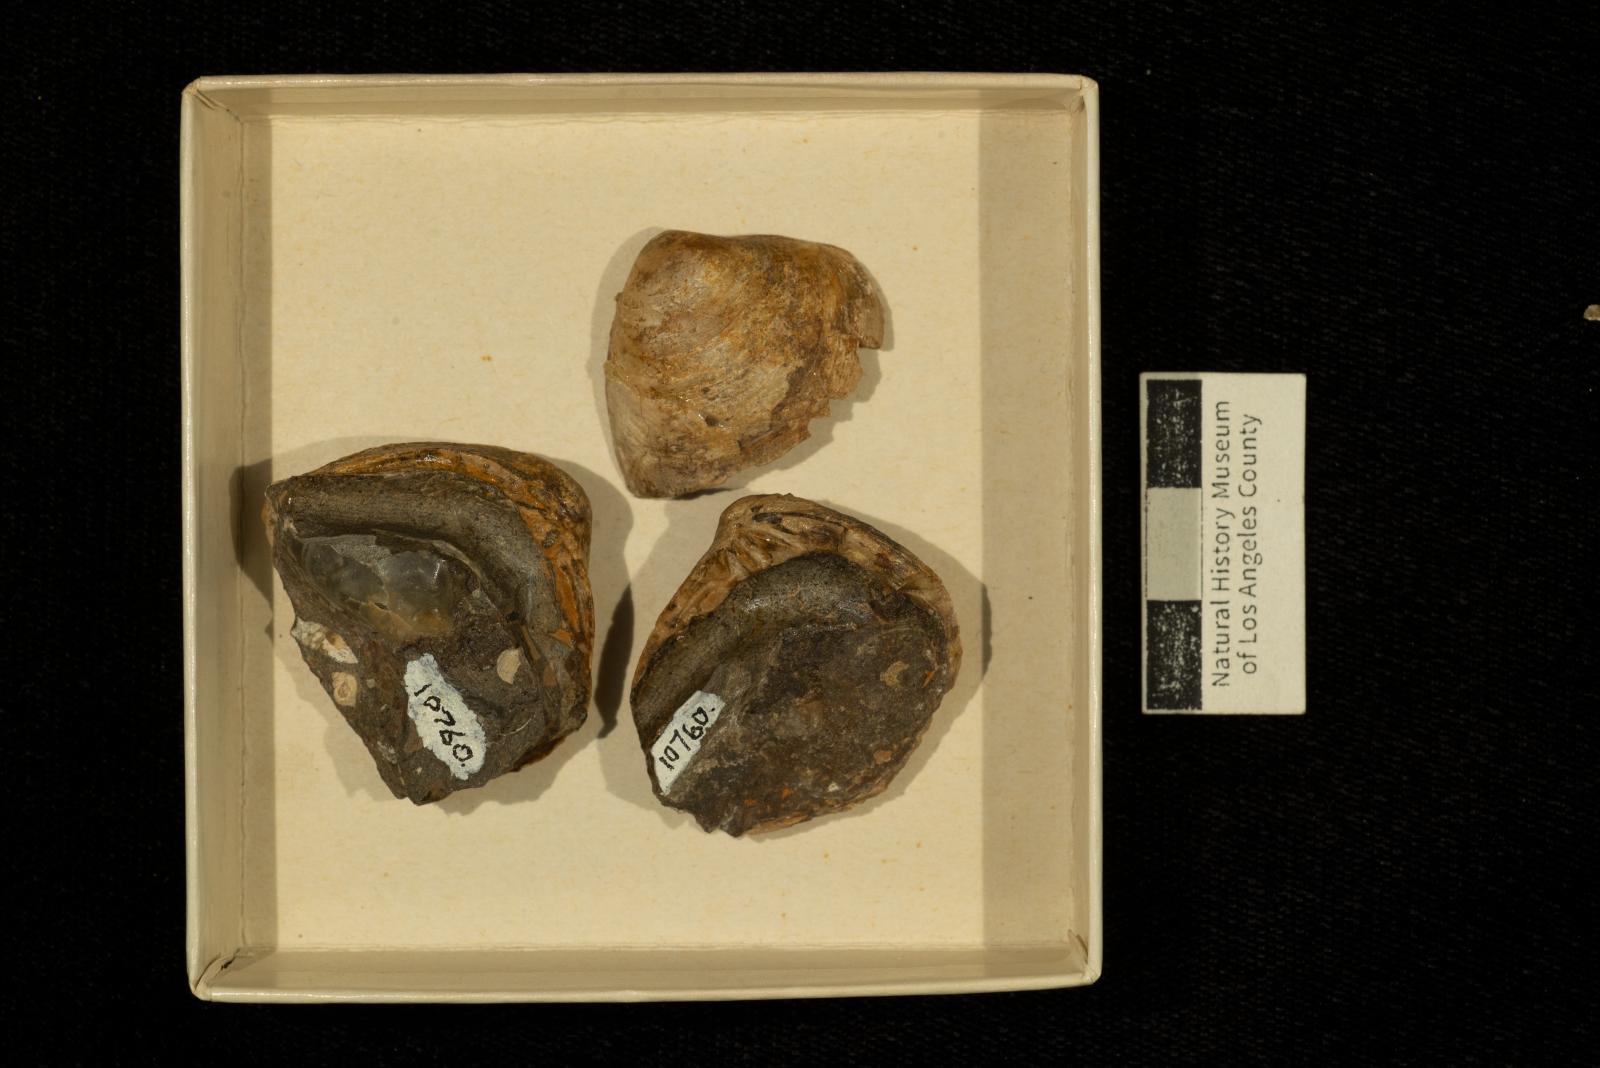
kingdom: Animalia
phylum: Mollusca
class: Bivalvia
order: Venerida
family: Cyrenidae
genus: Corbicula
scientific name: Corbicula
